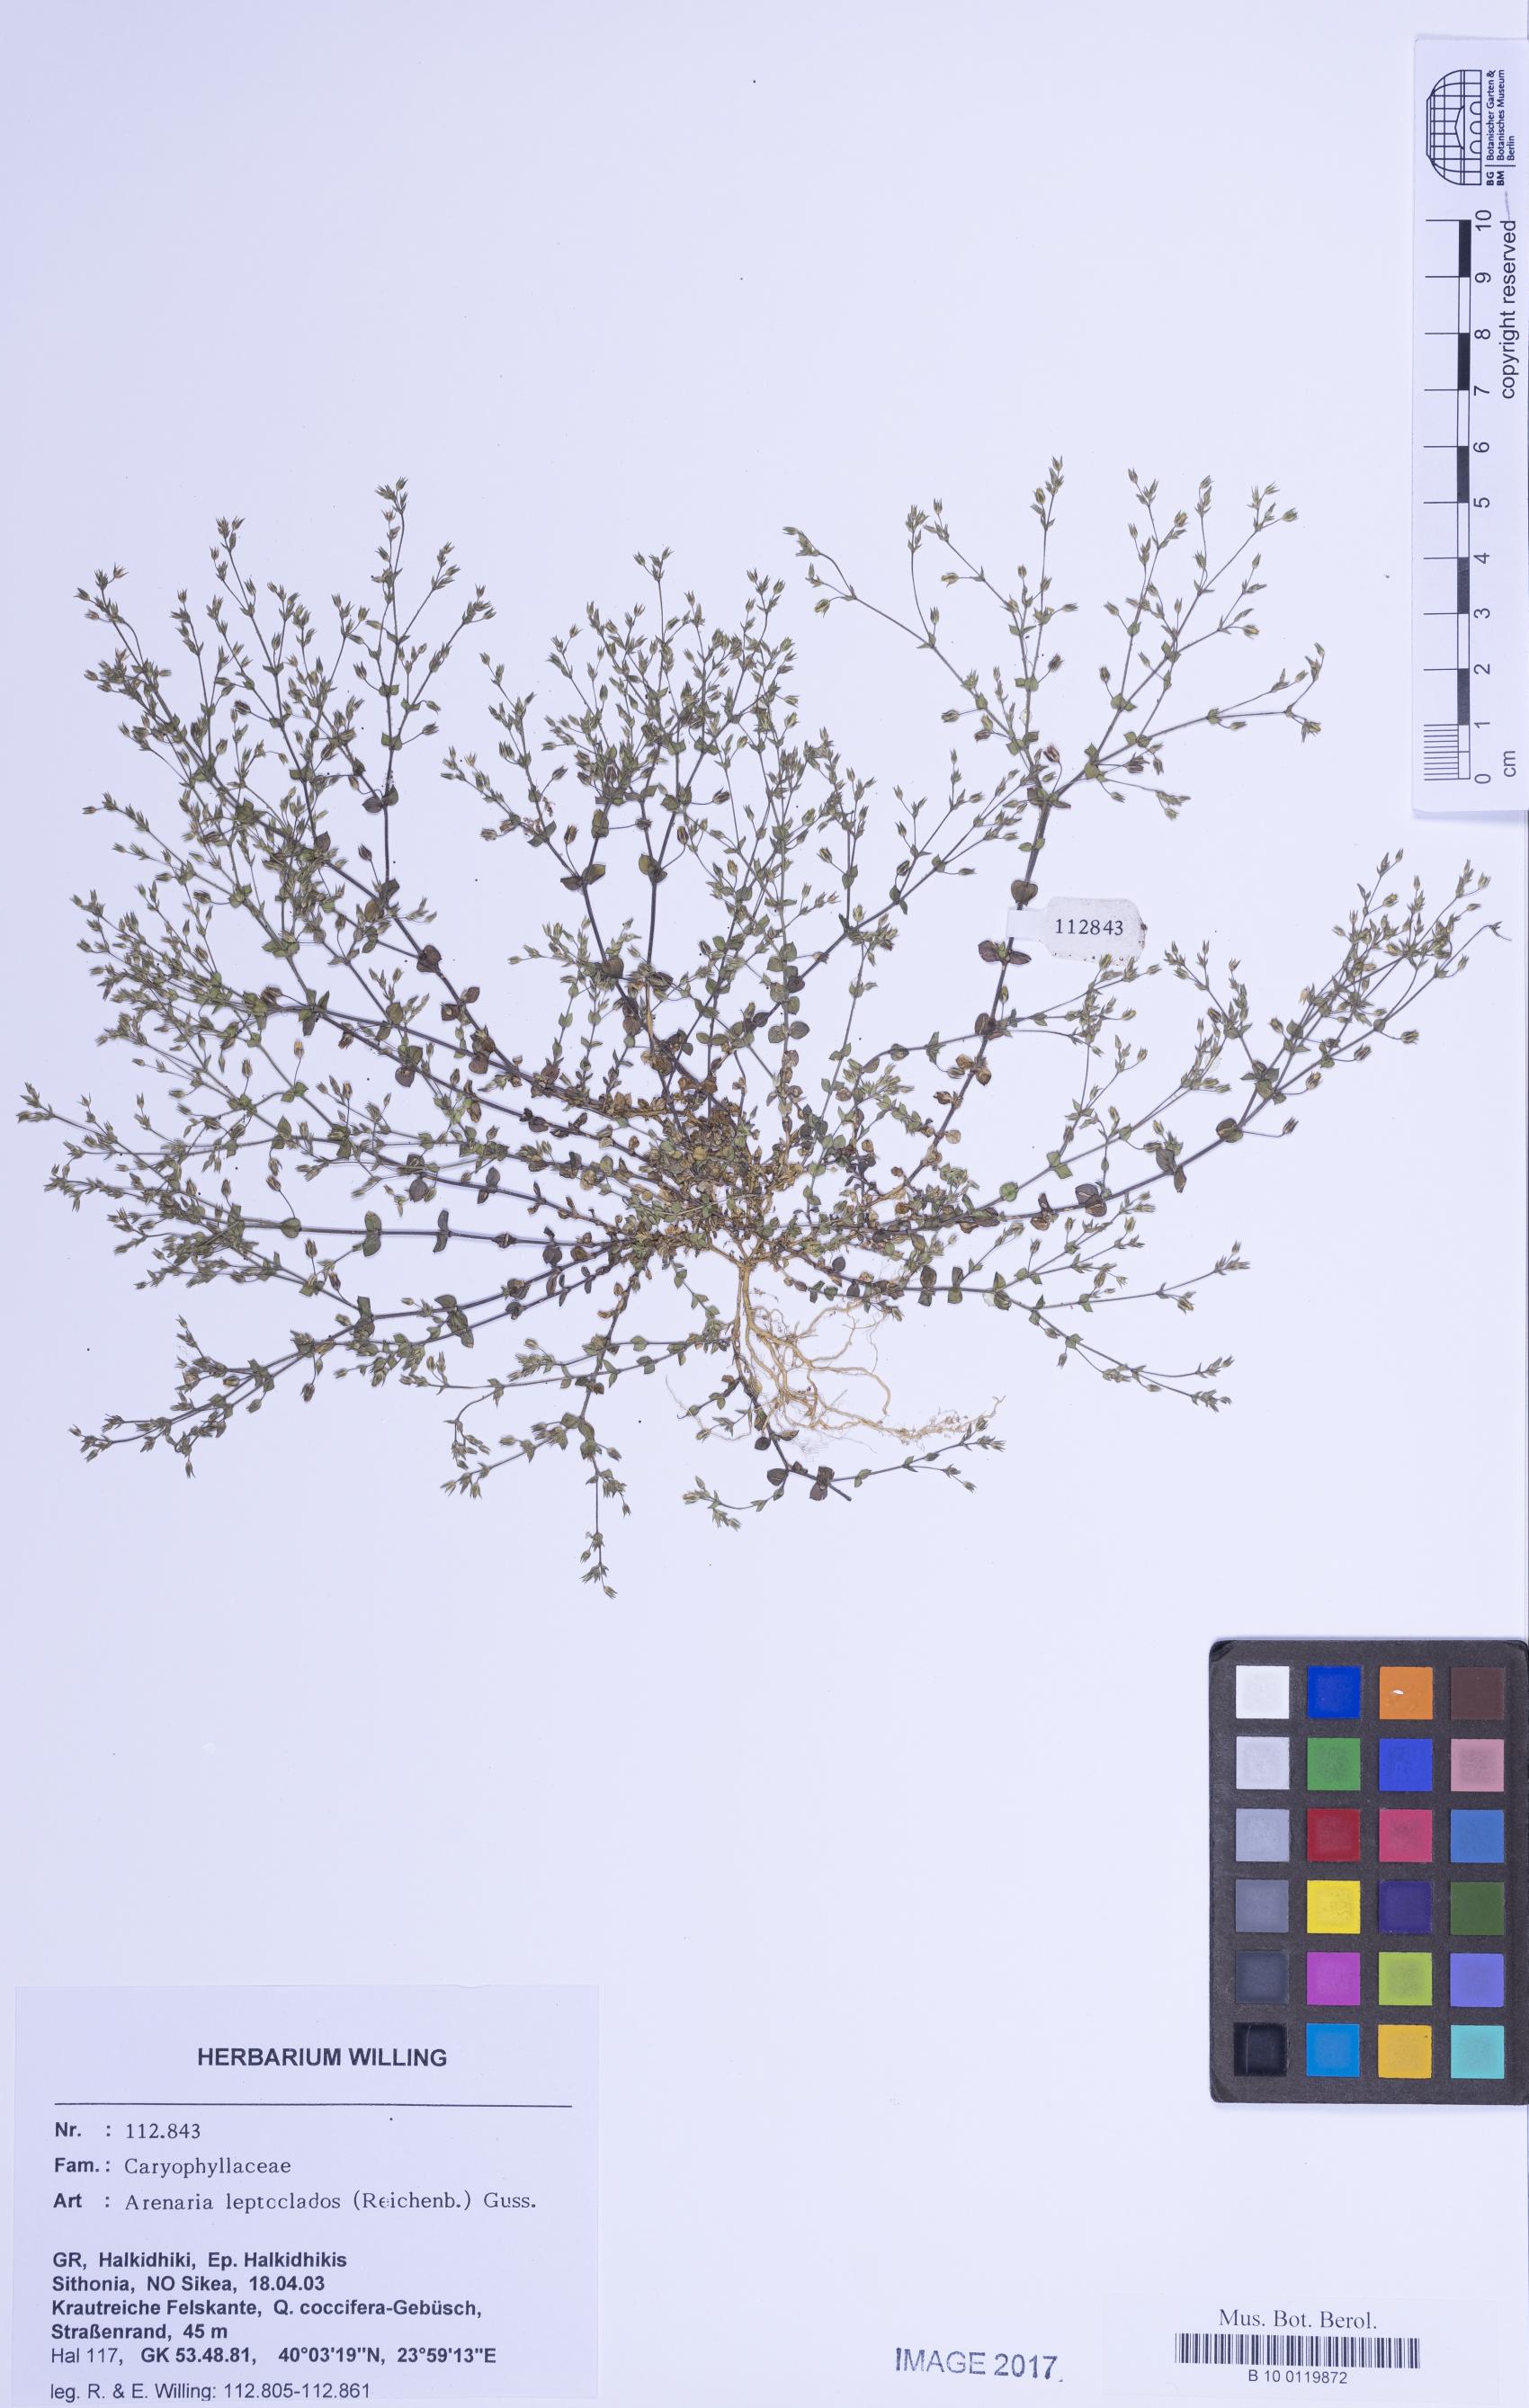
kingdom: Plantae
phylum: Tracheophyta
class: Magnoliopsida
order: Caryophyllales
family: Caryophyllaceae
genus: Arenaria
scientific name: Arenaria leptoclados
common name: Thyme-leaved sandwort
